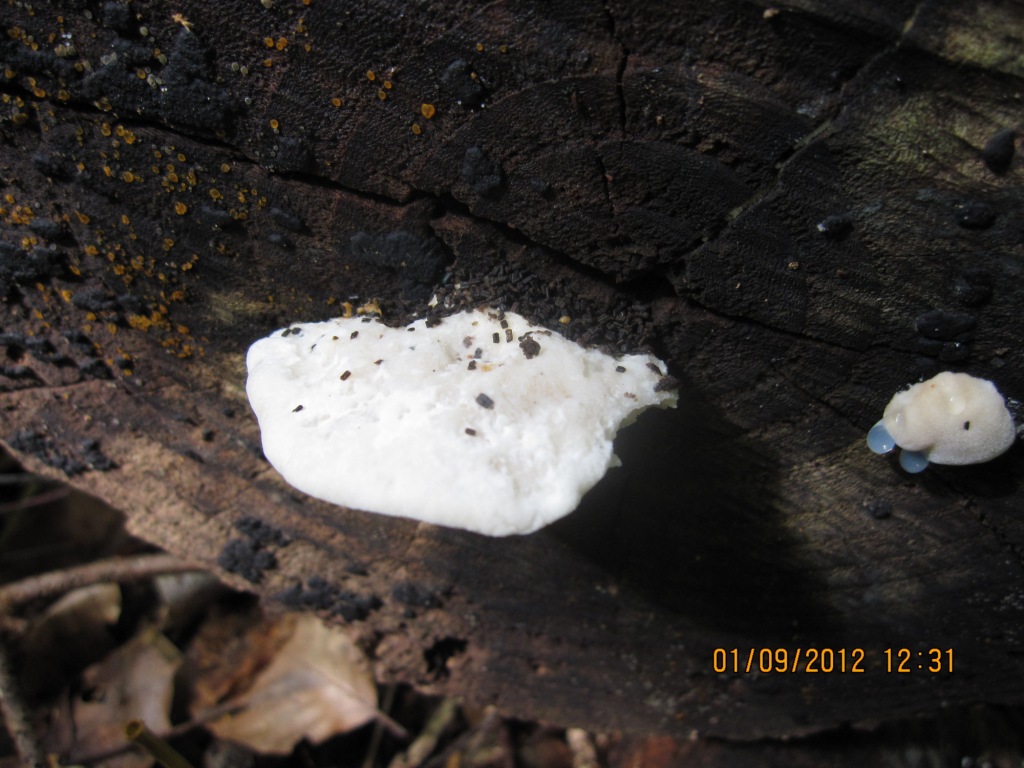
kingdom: Fungi
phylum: Basidiomycota
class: Agaricomycetes
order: Polyporales
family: Incrustoporiaceae
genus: Tyromyces
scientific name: Tyromyces lacteus
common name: mælkehvid kødporesvamp
